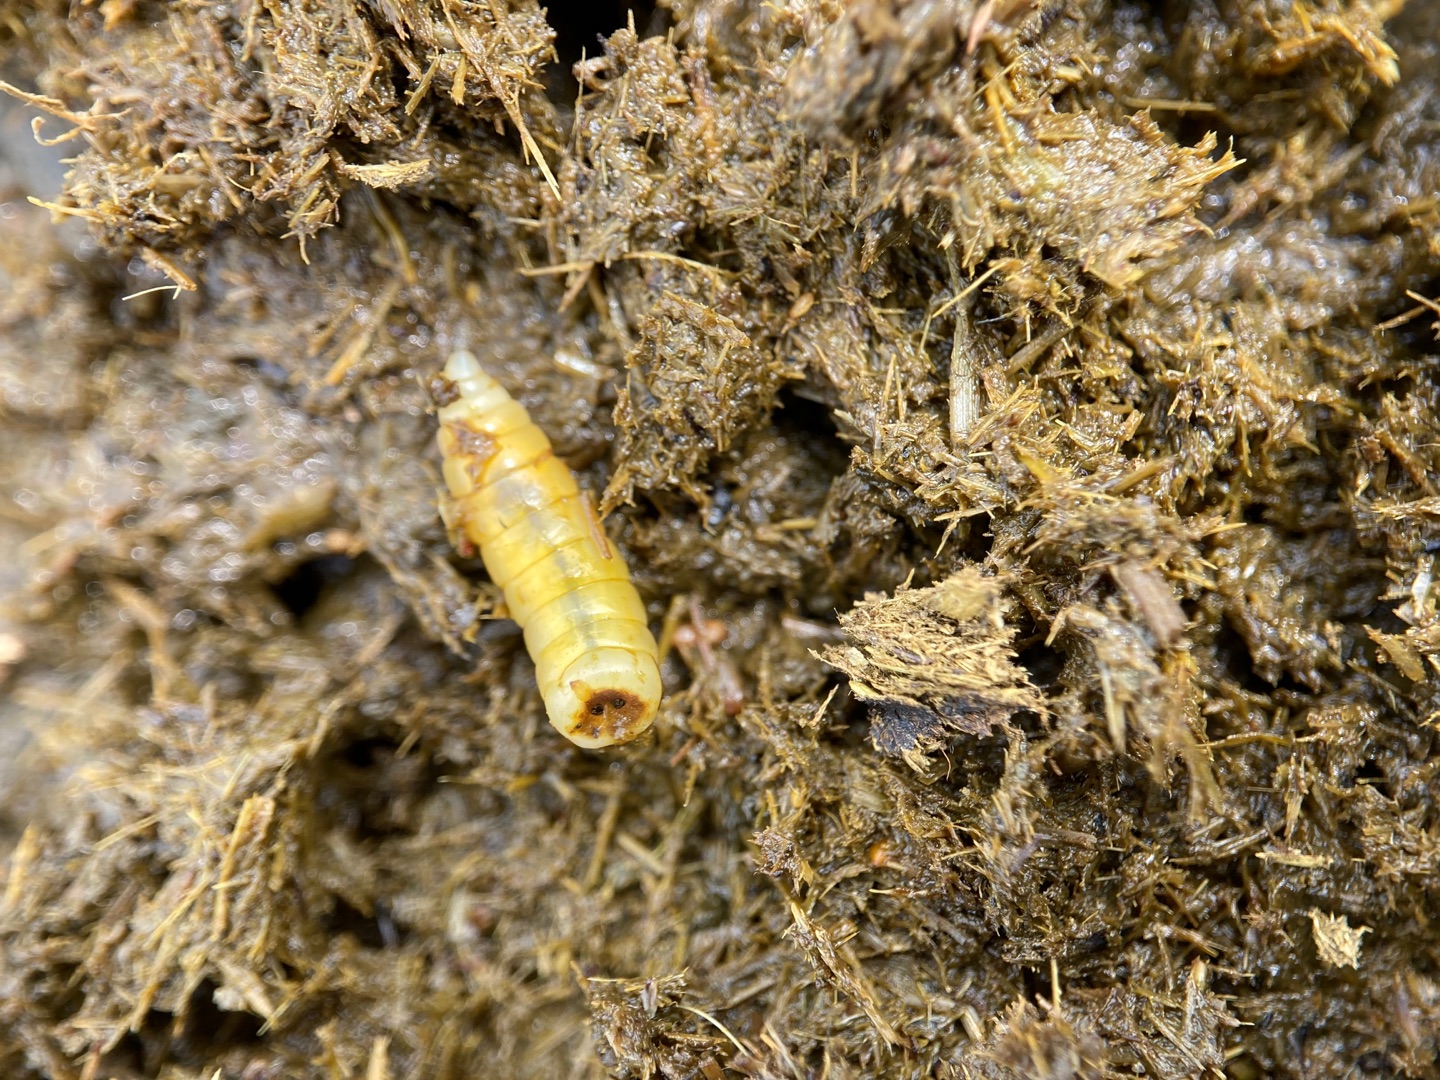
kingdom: Animalia
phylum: Arthropoda
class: Insecta
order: Diptera
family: Muscidae
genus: Mesembrina
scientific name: Mesembrina meridiana
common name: Gulvinget flue
